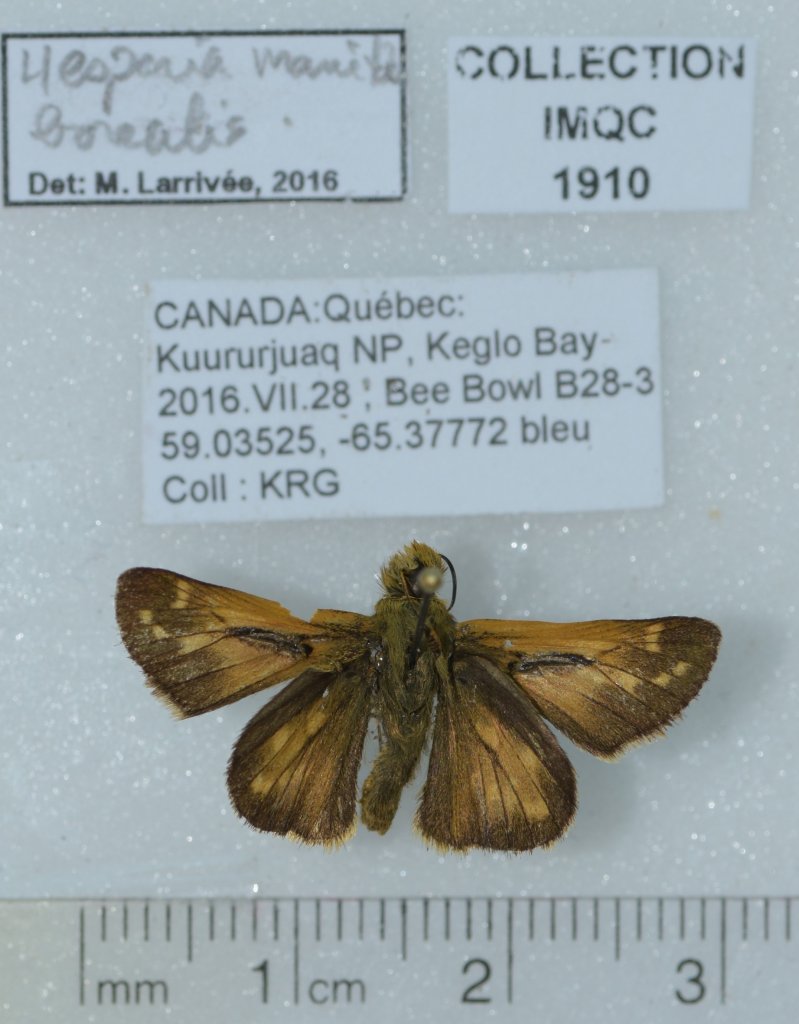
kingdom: Animalia
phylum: Arthropoda
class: Insecta
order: Lepidoptera
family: Hesperiidae
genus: Hesperia
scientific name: Hesperia comma
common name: Common Branded Skipper
